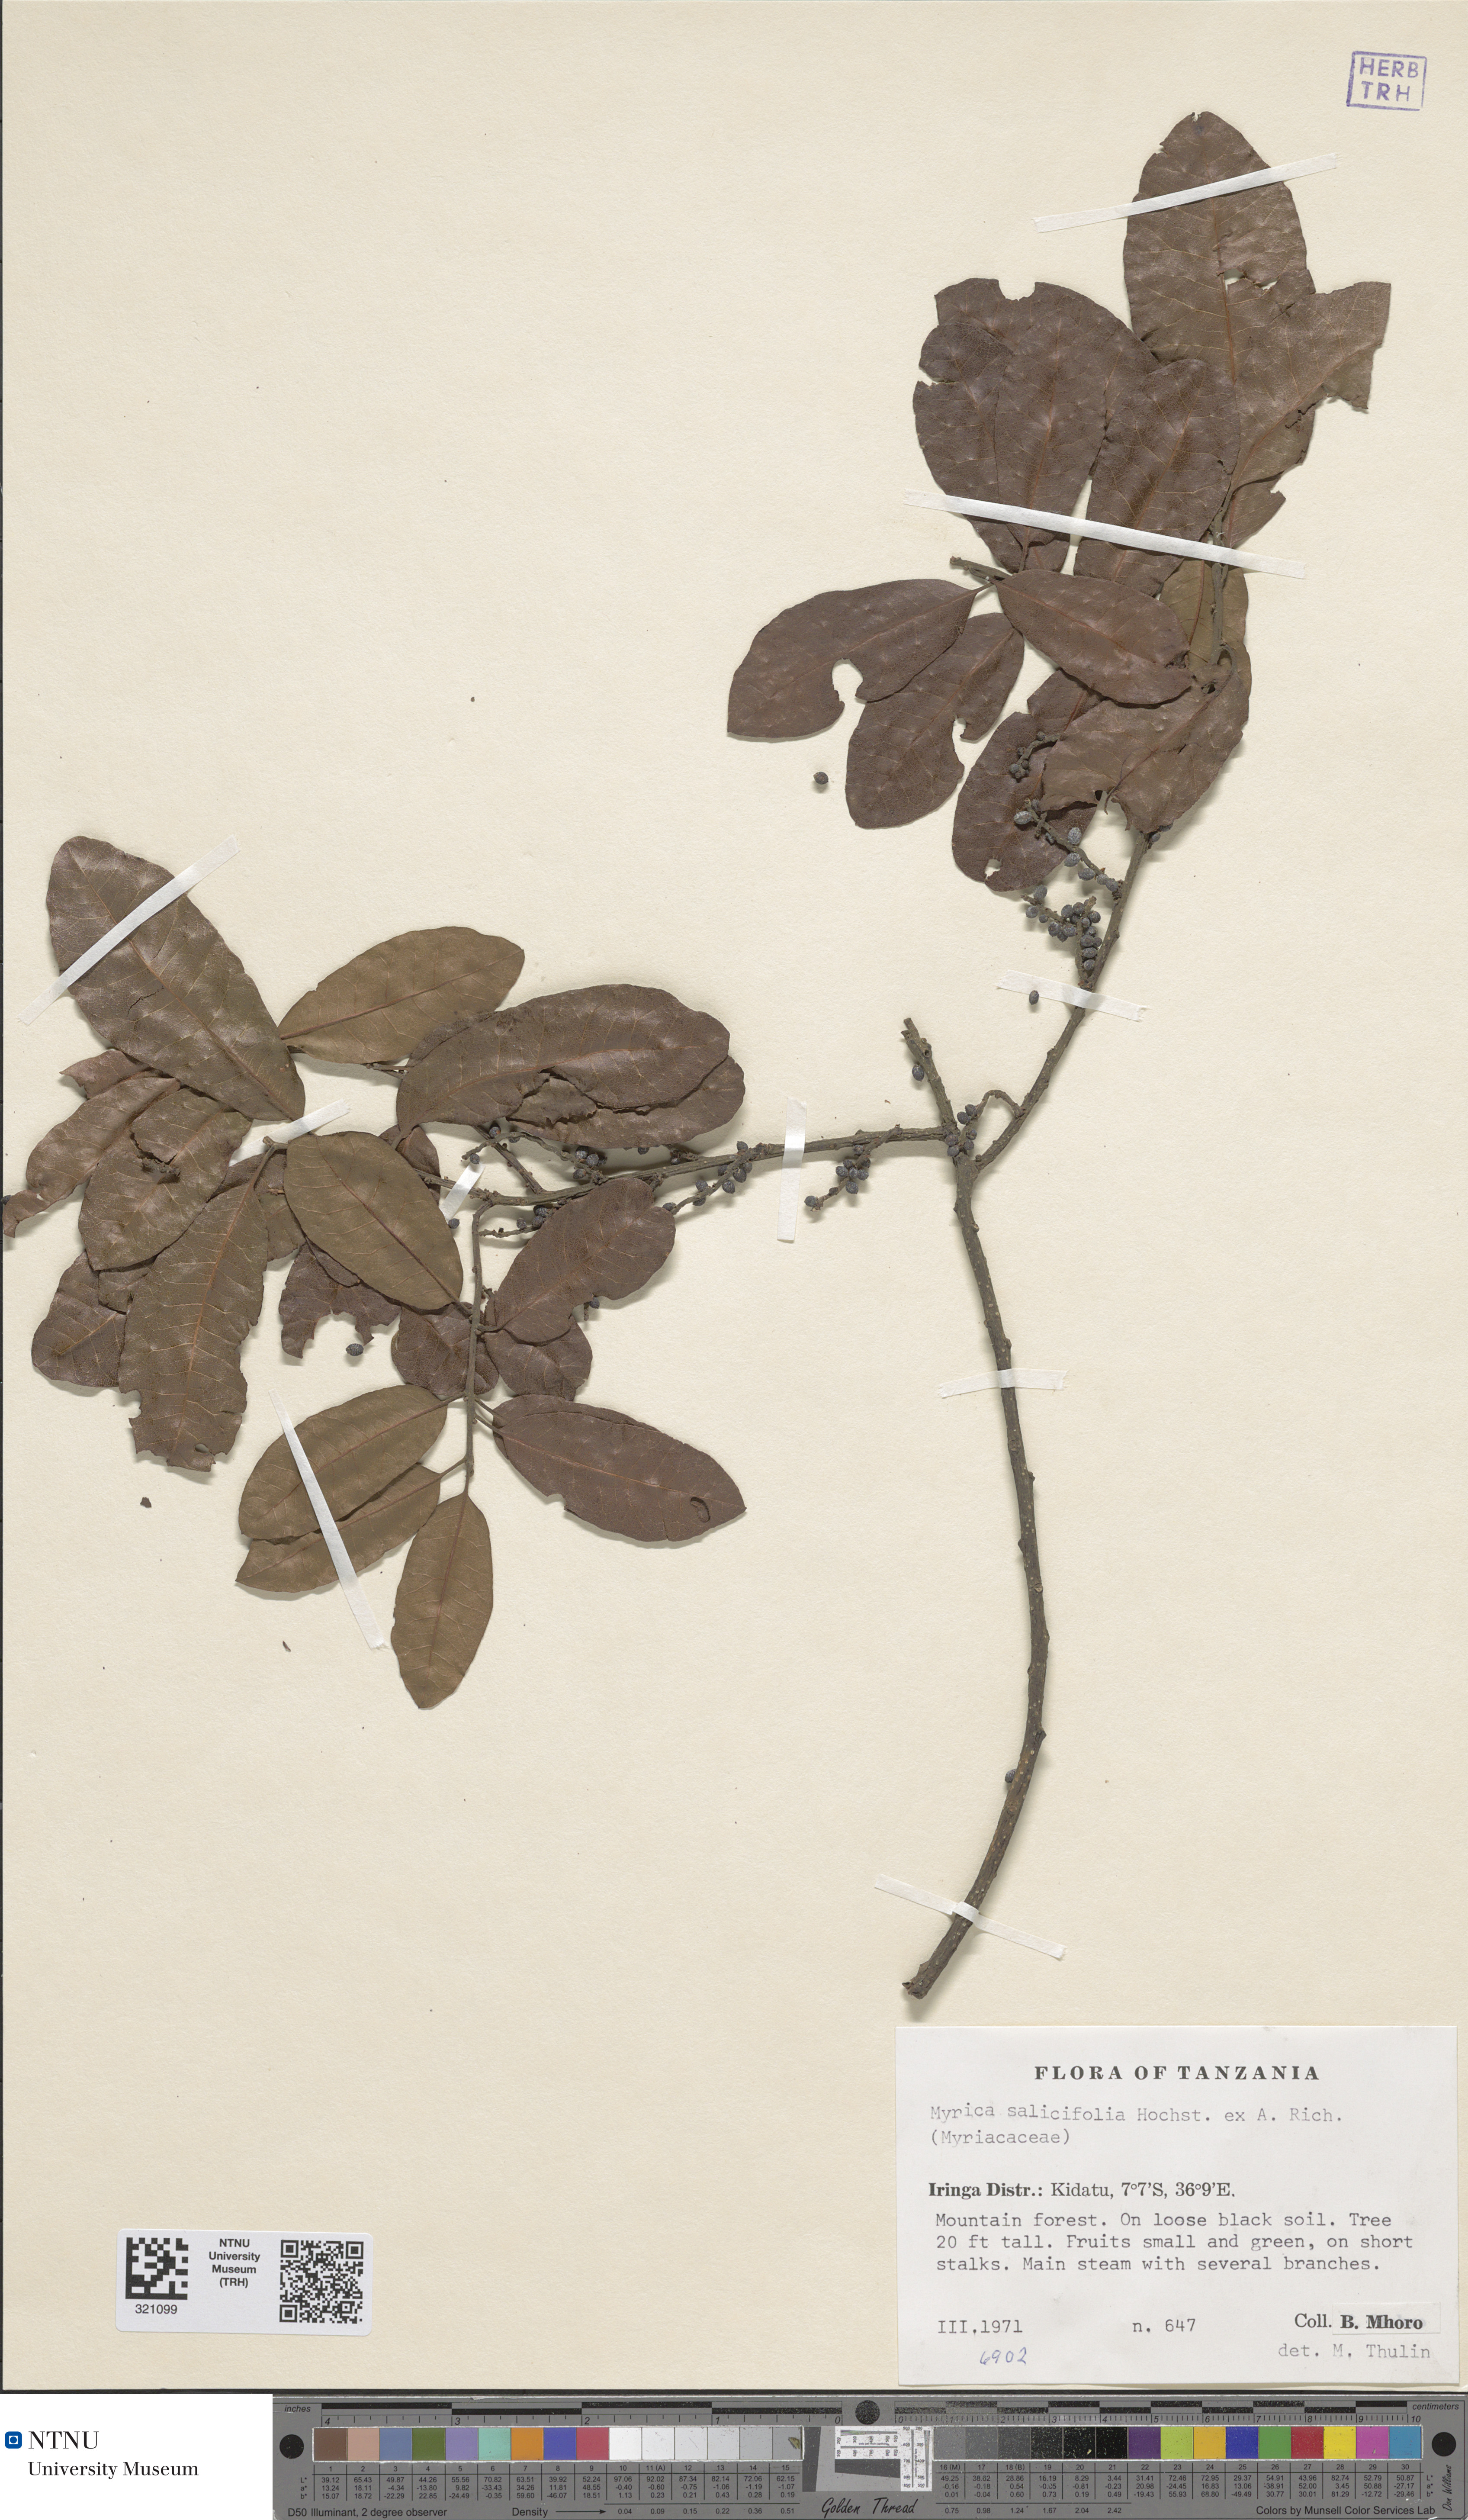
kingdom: Plantae
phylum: Tracheophyta
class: Magnoliopsida
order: Fagales
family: Myricaceae
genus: Morella
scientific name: Morella salicifolia
